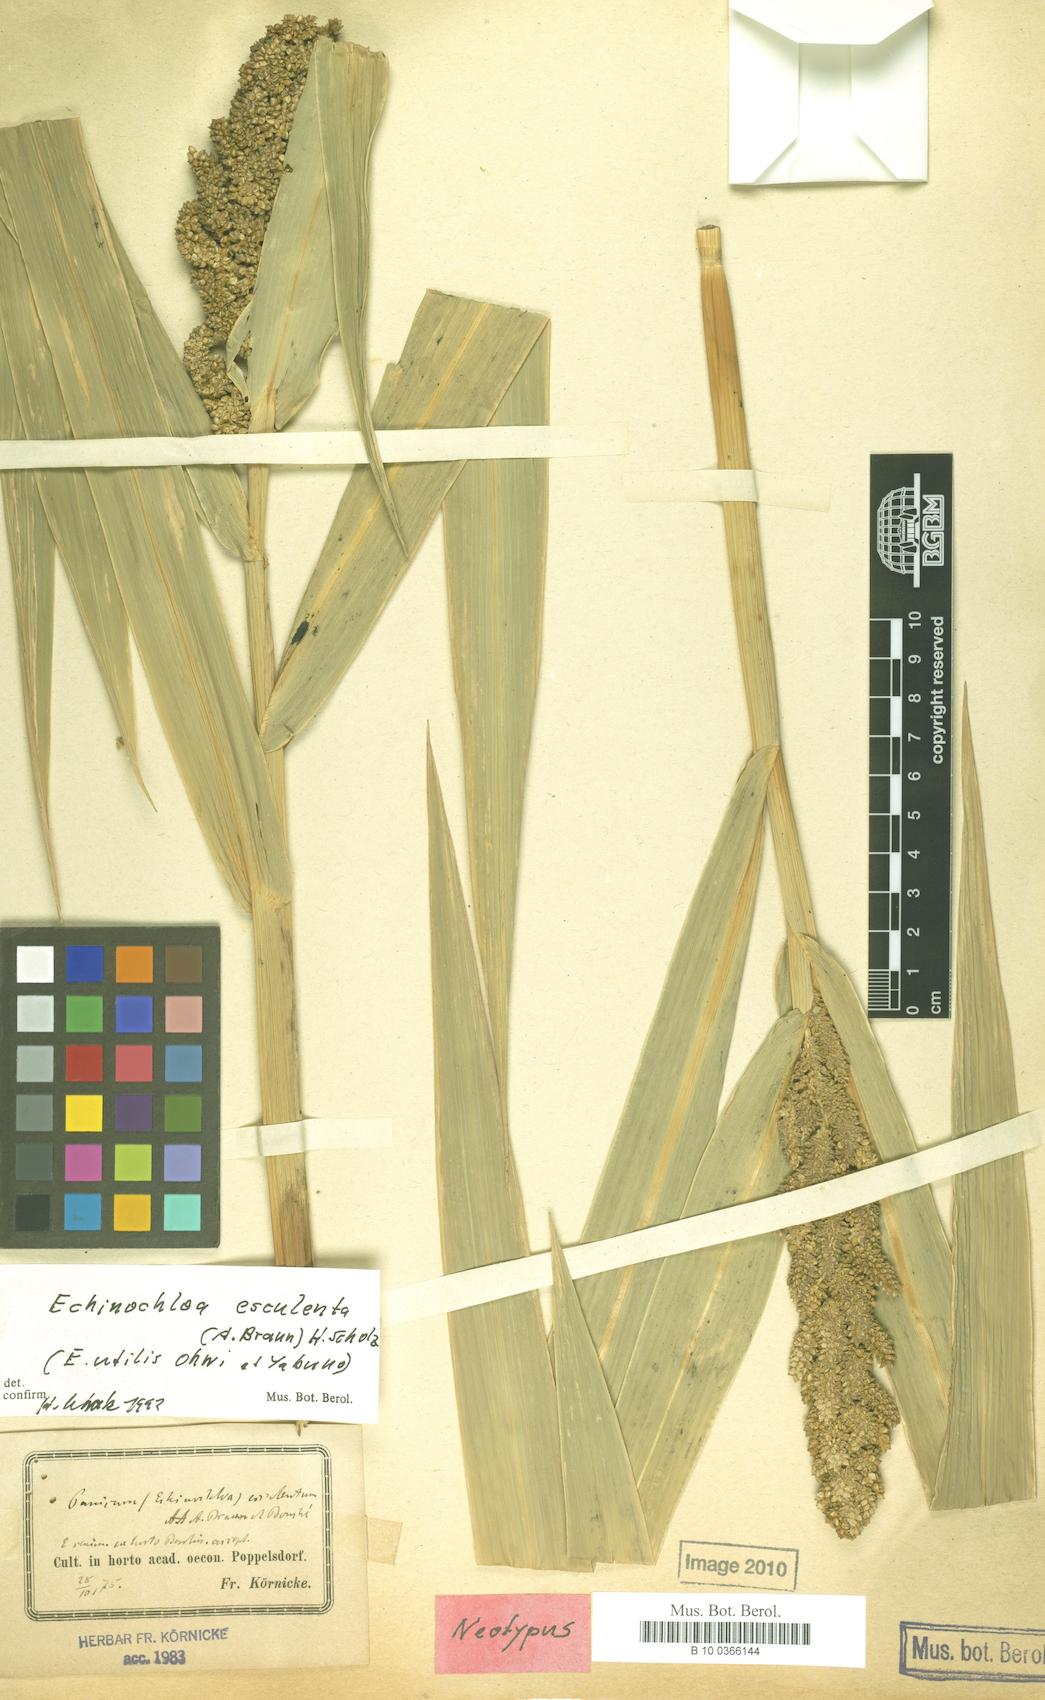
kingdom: Plantae
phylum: Tracheophyta
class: Liliopsida
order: Poales
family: Poaceae
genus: Echinochloa
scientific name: Echinochloa crus-galli
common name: Cockspur
